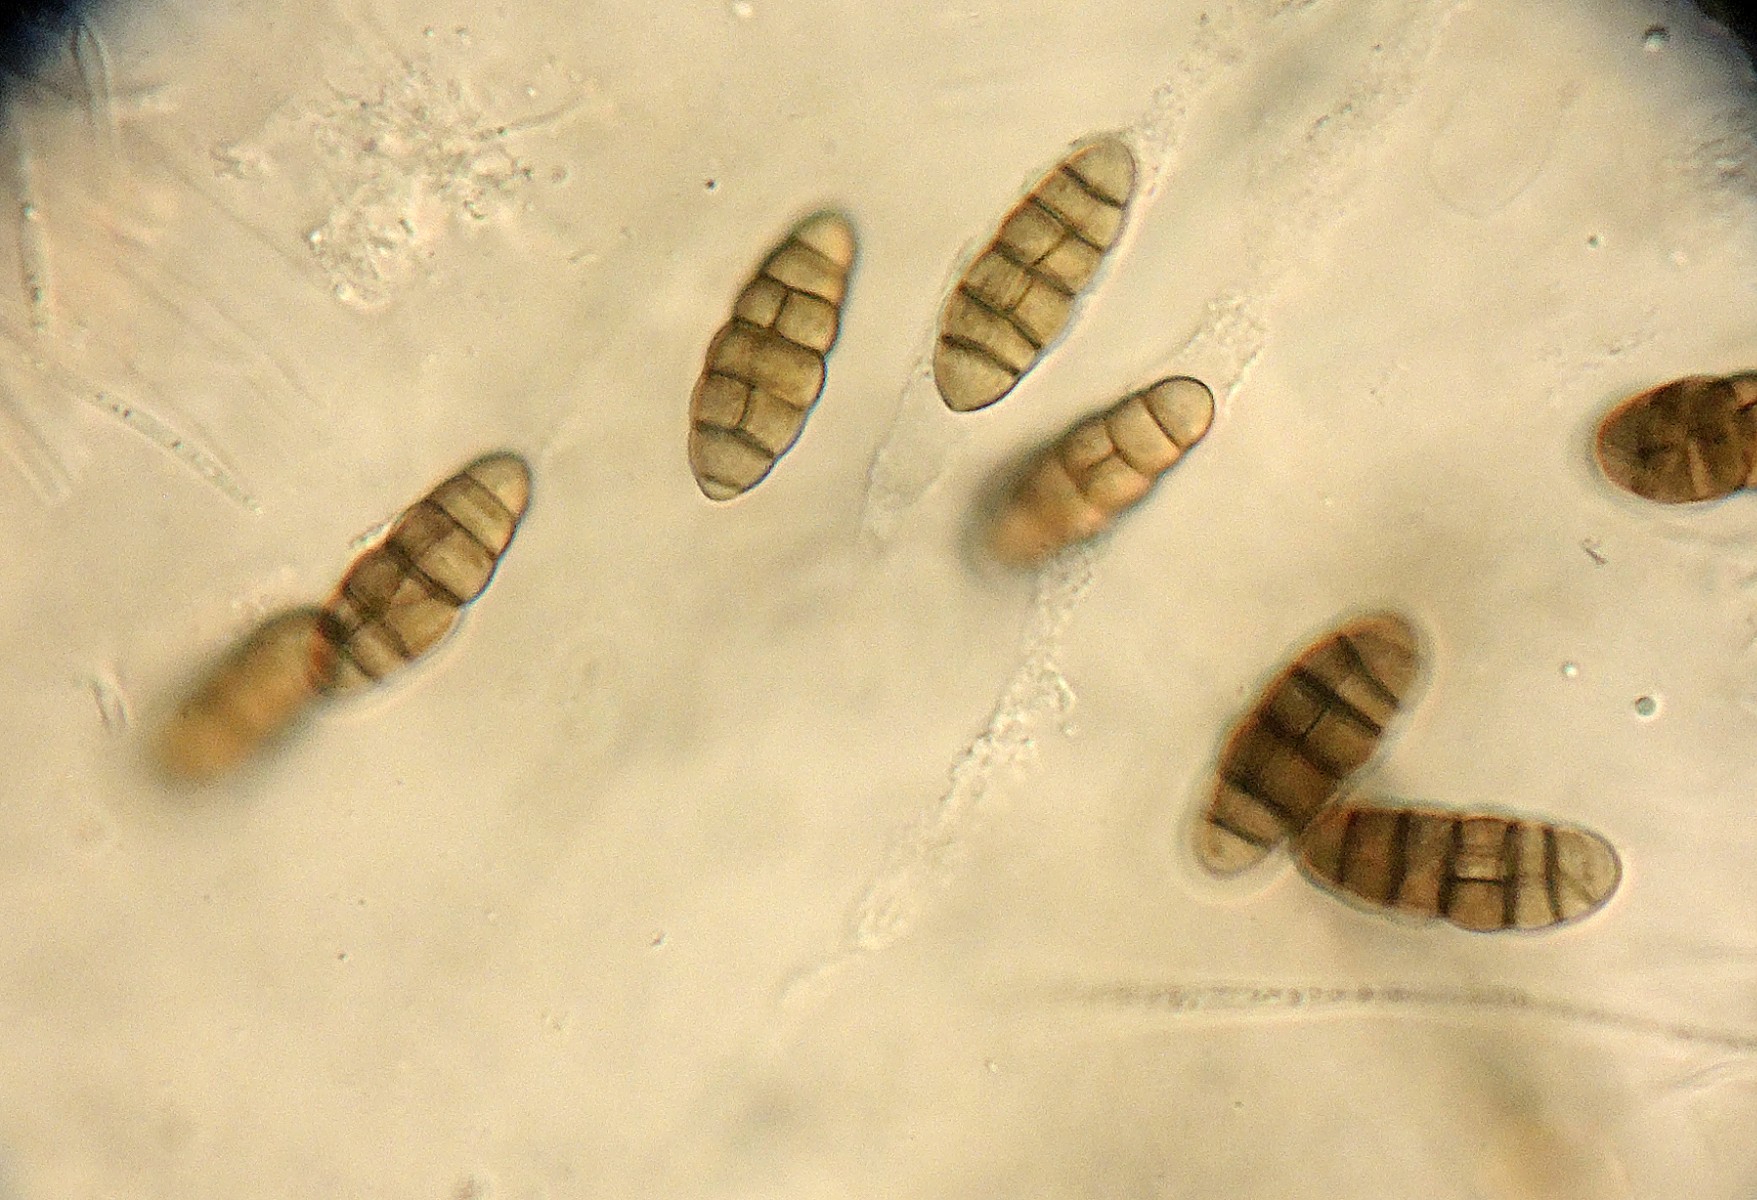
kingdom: Fungi
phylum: Ascomycota
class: Dothideomycetes
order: Pleosporales
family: Lophiostomataceae
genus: Lophiostoma
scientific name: Lophiostoma compressum
